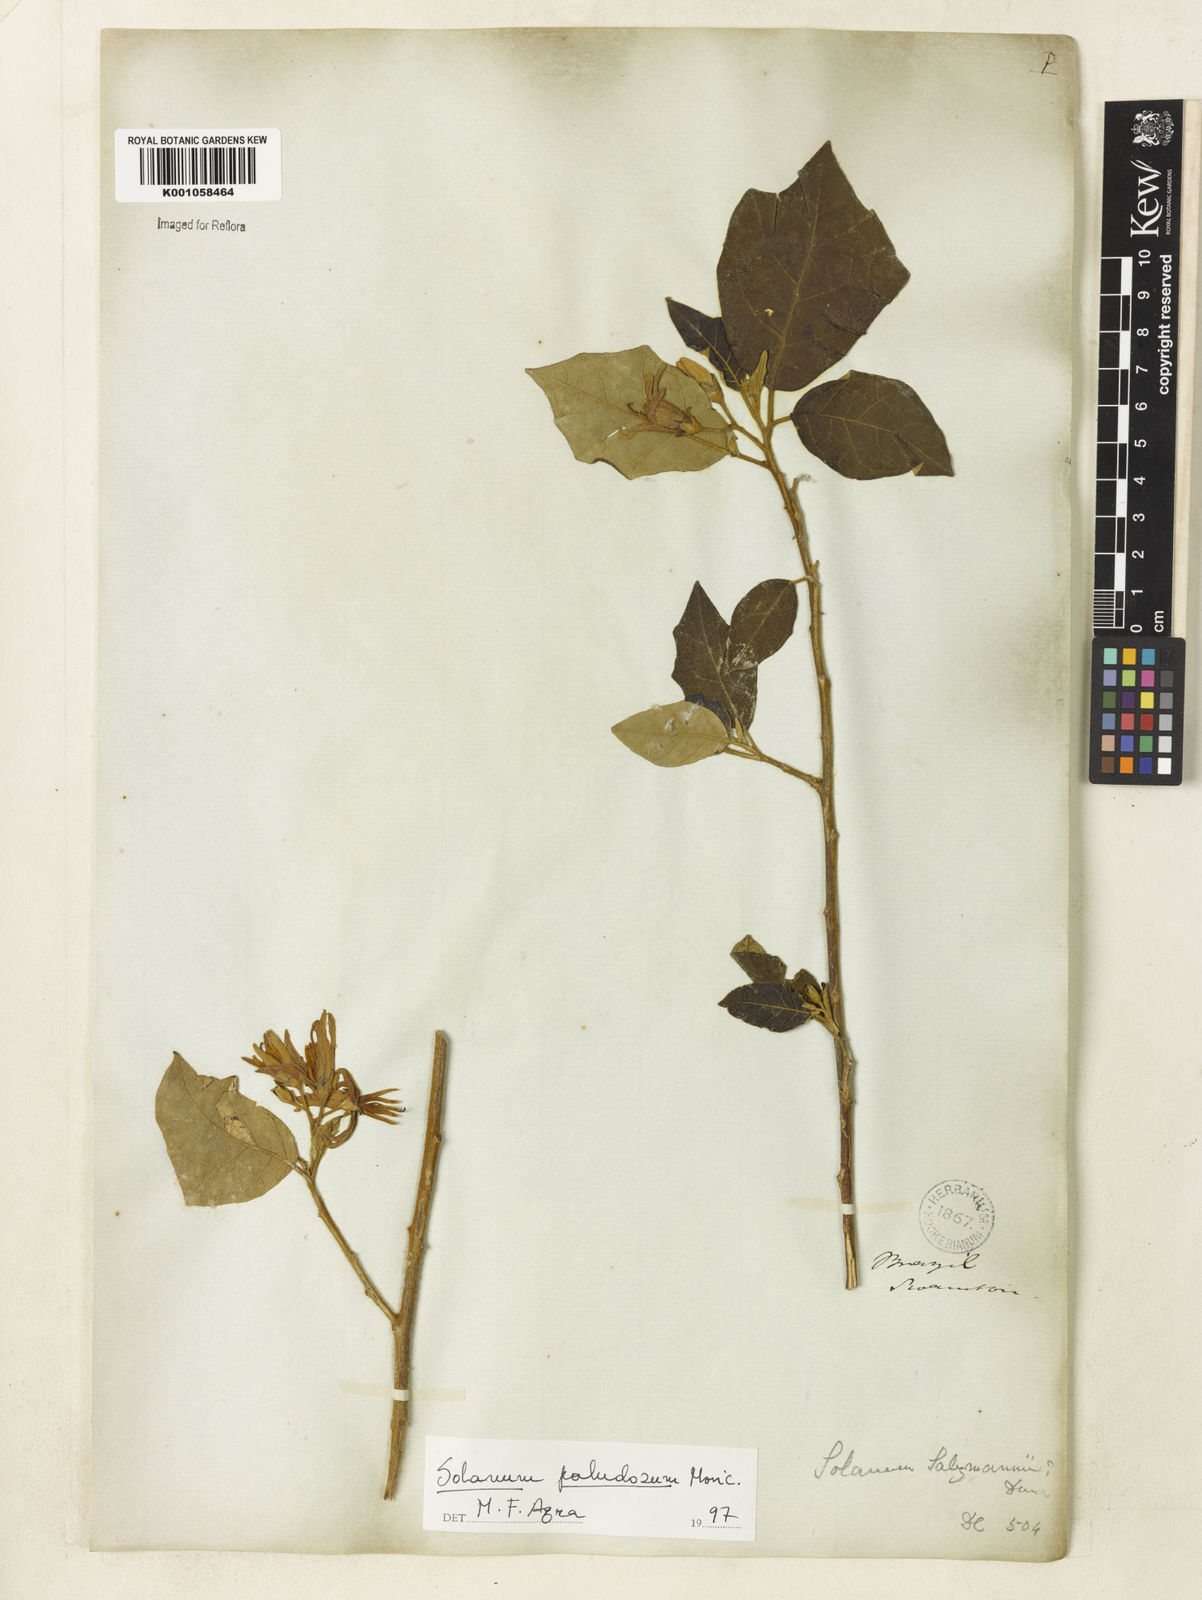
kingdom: Plantae
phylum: Tracheophyta
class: Magnoliopsida
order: Solanales
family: Solanaceae
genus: Solanum
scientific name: Solanum paludosum
